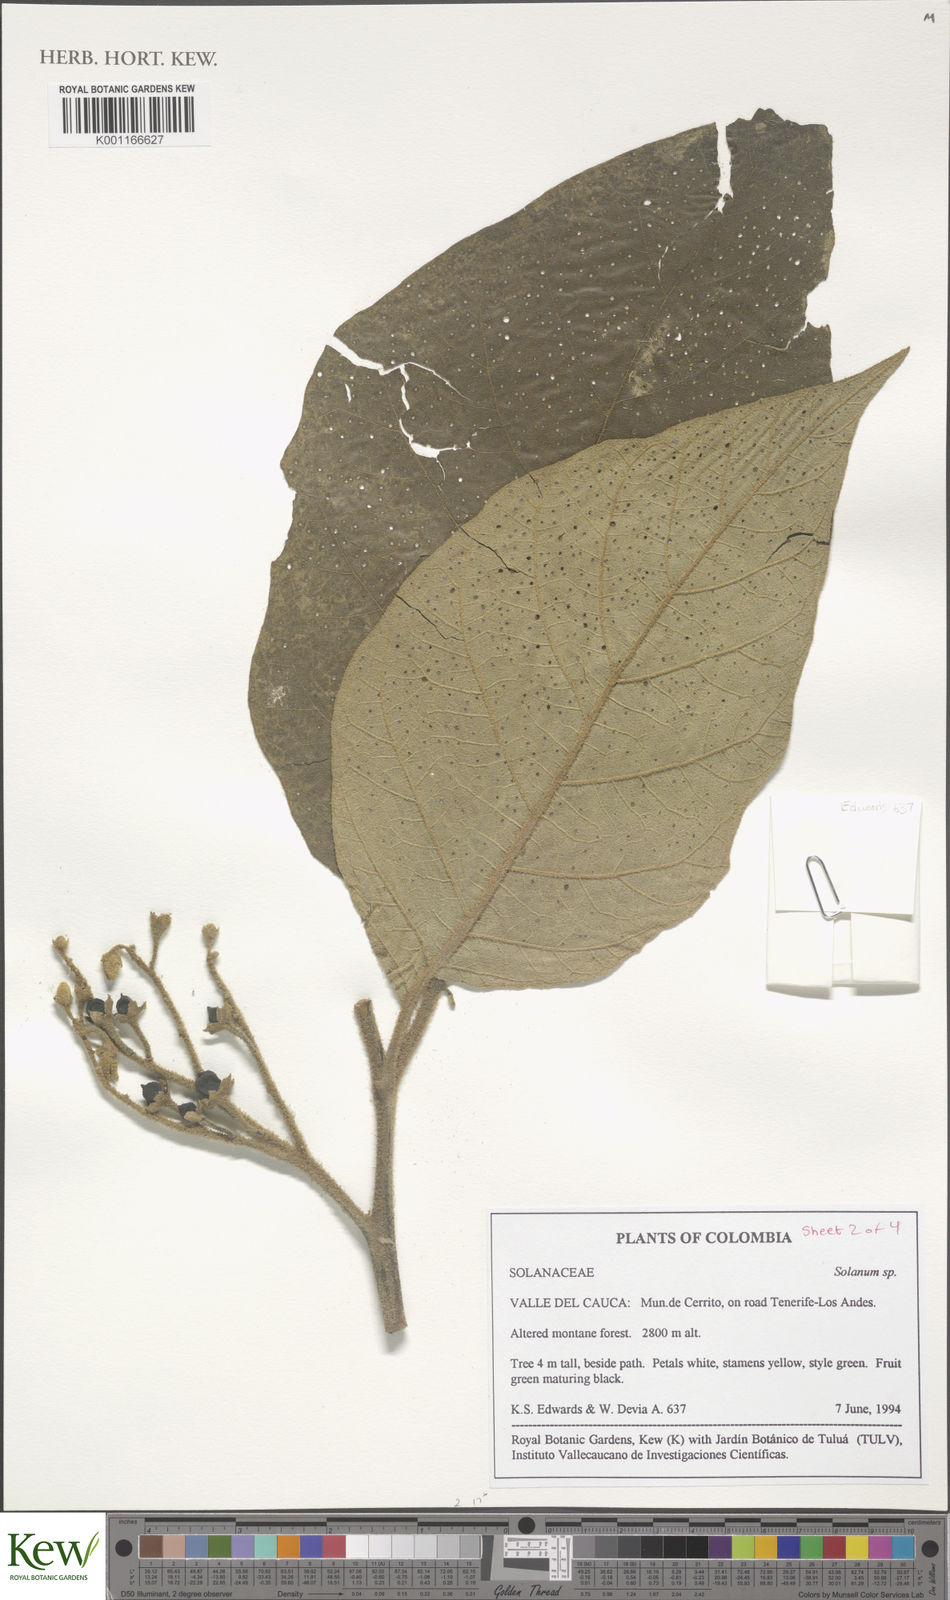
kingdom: Plantae
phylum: Tracheophyta
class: Magnoliopsida
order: Solanales
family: Solanaceae
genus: Solanum
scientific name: Solanum
